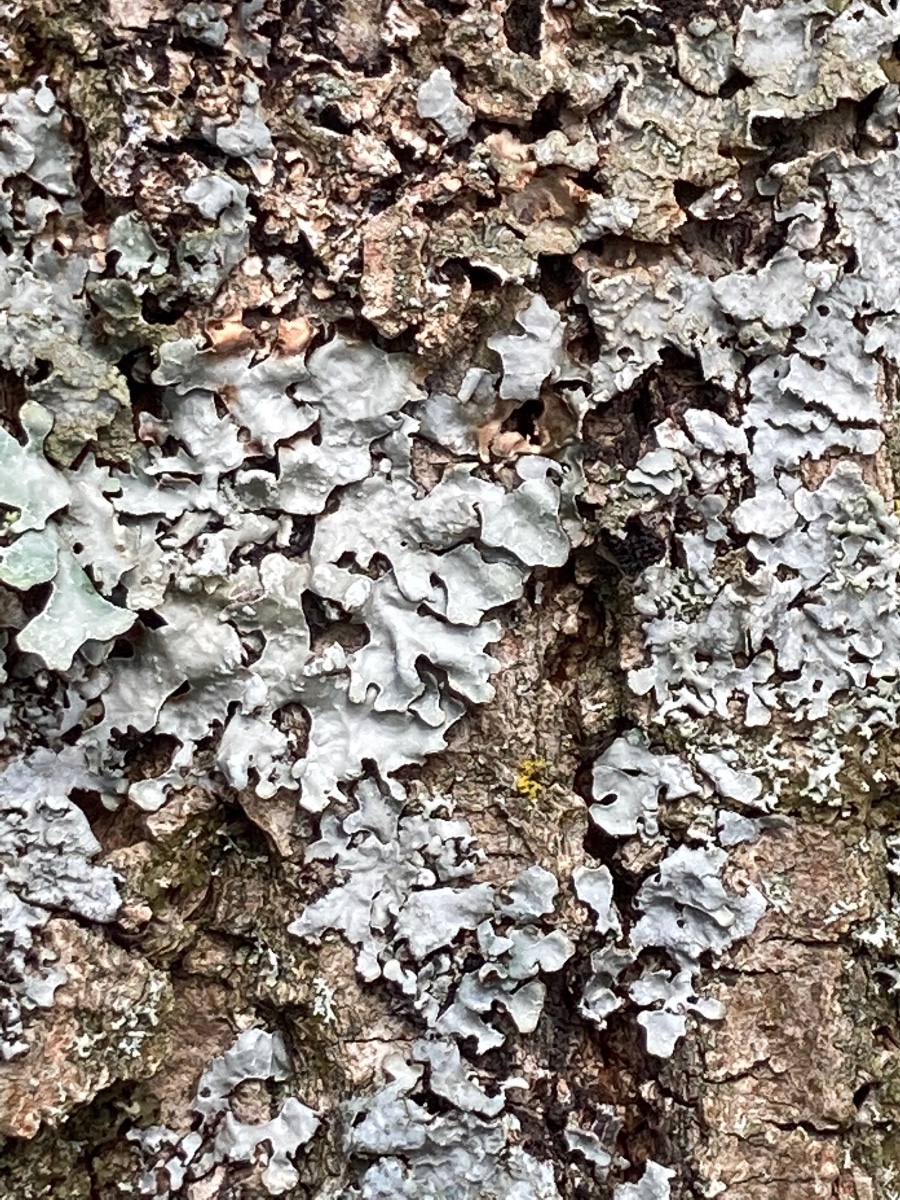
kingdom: Fungi
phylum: Ascomycota
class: Lecanoromycetes
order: Lecanorales
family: Parmeliaceae
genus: Parmelia
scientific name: Parmelia sulcata
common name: rynket skållav
